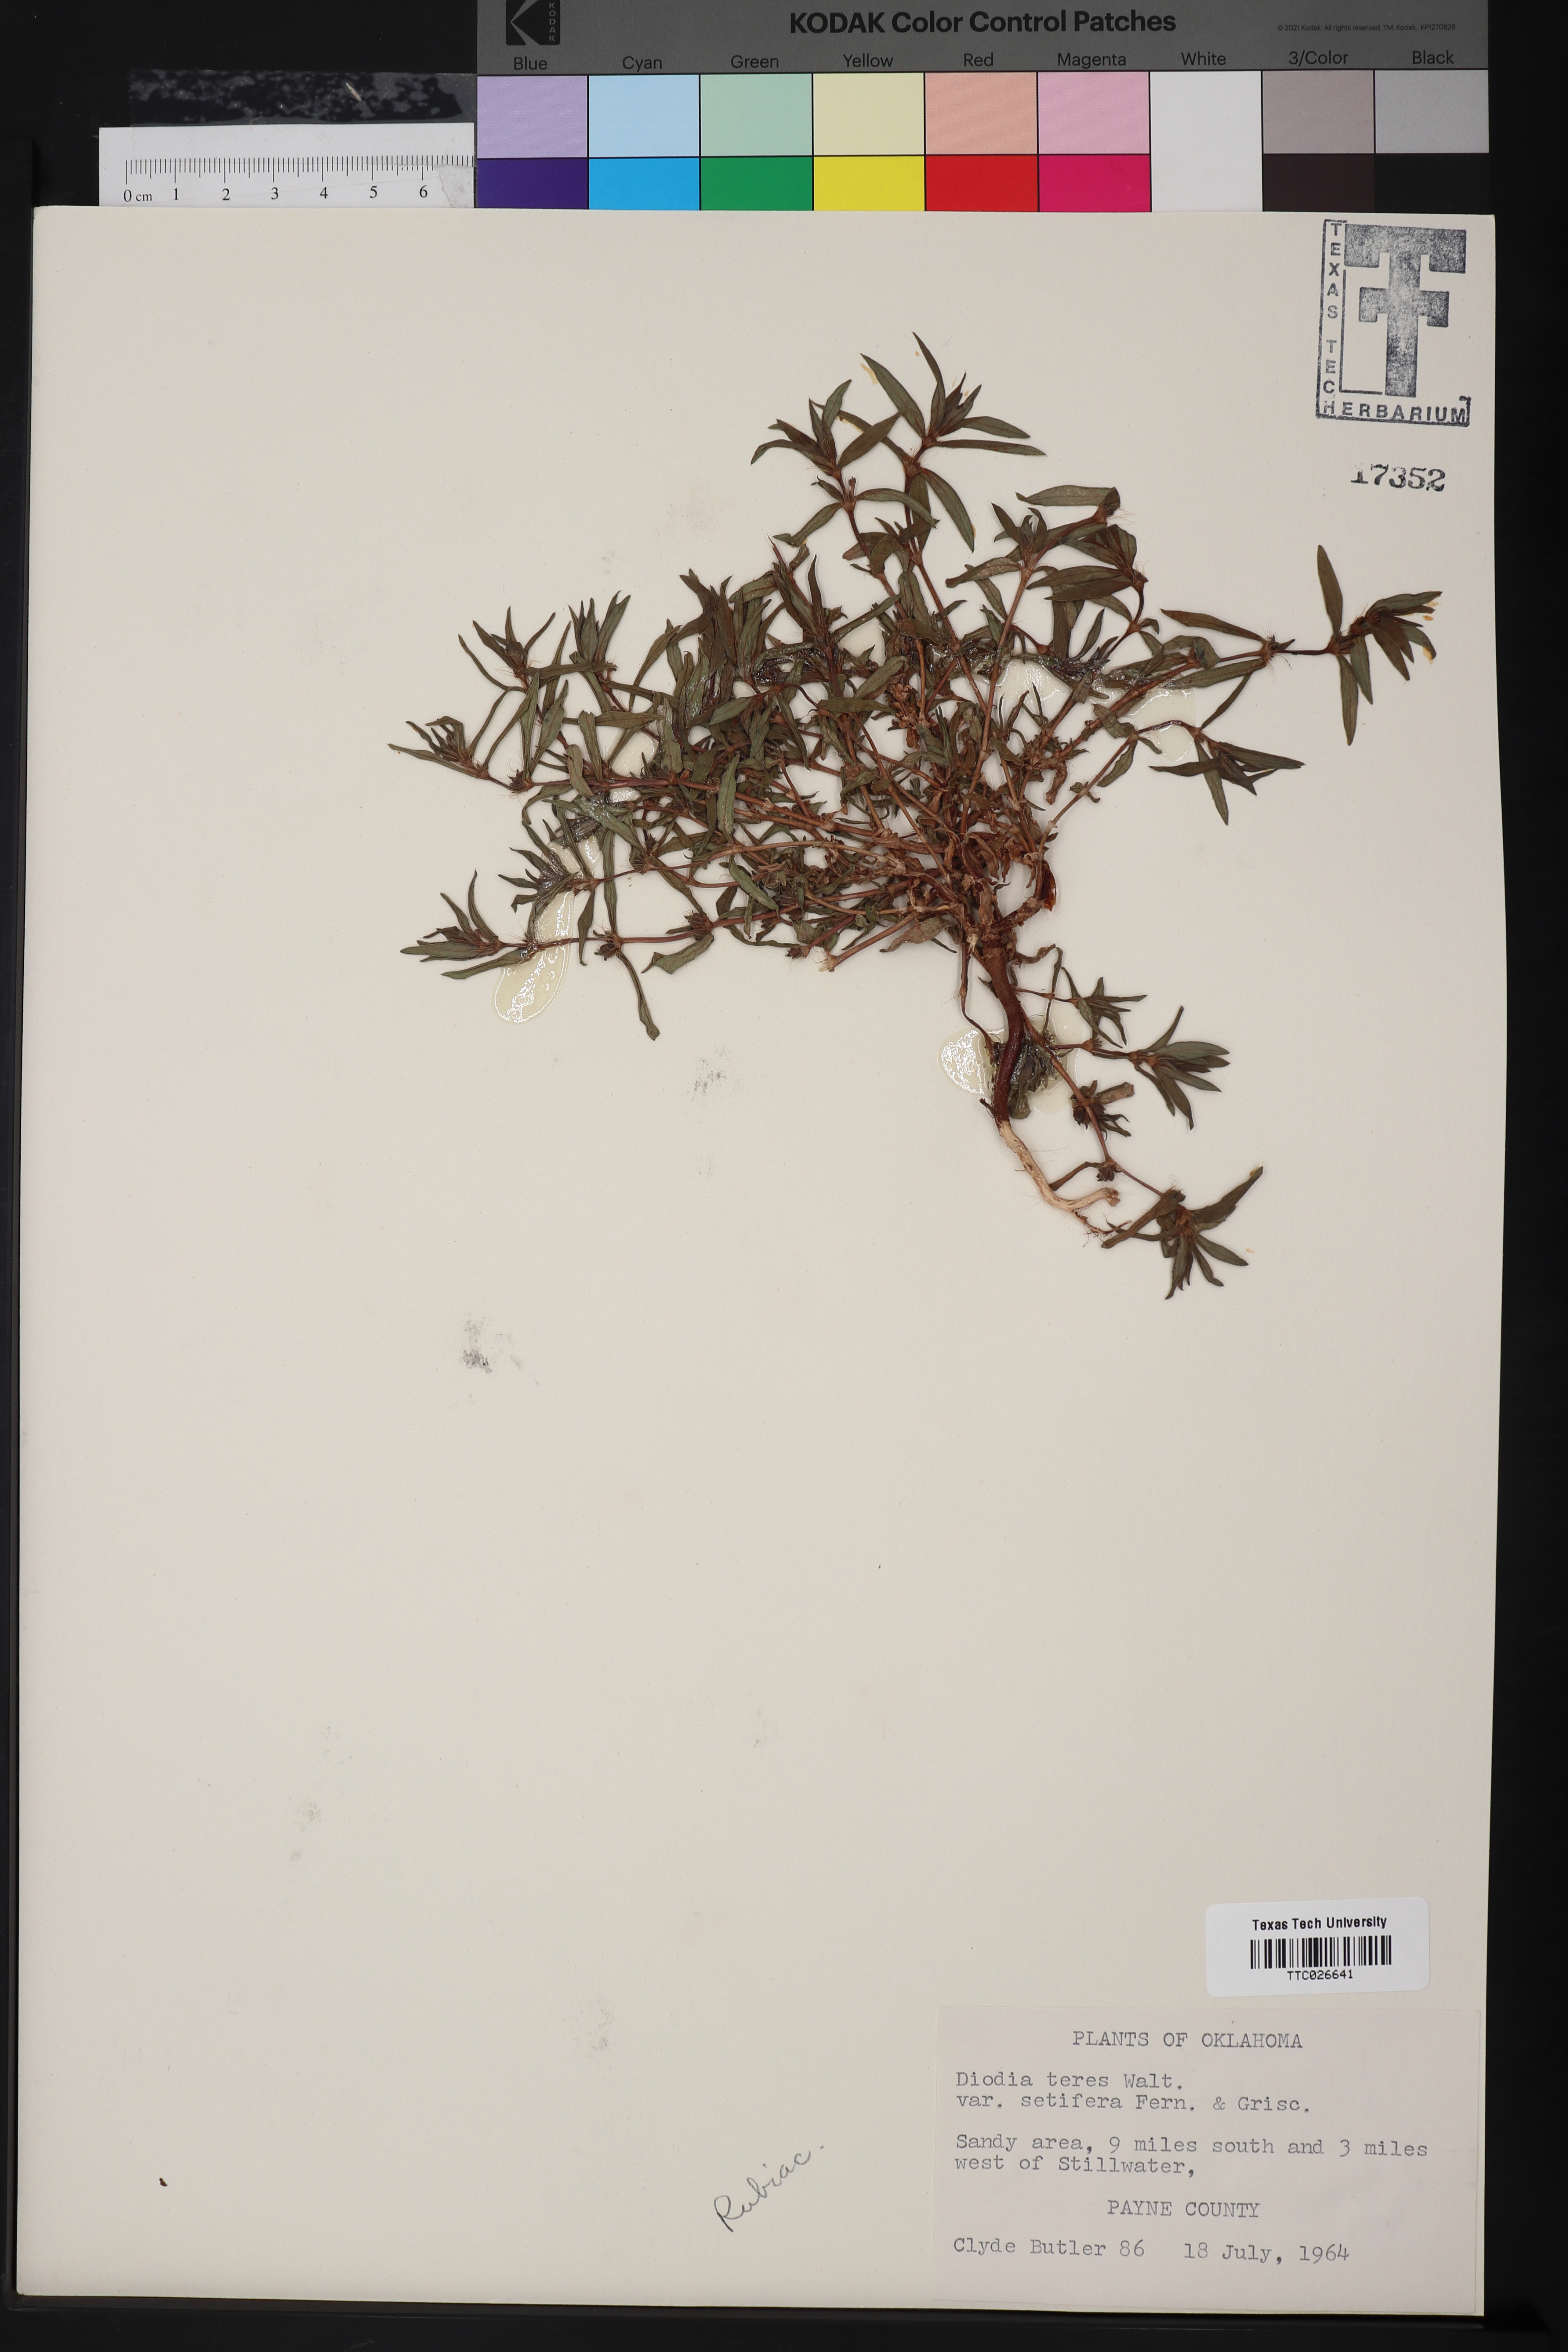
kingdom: Plantae
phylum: Tracheophyta
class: Magnoliopsida
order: Gentianales
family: Rubiaceae
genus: Hexasepalum
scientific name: Hexasepalum teres
